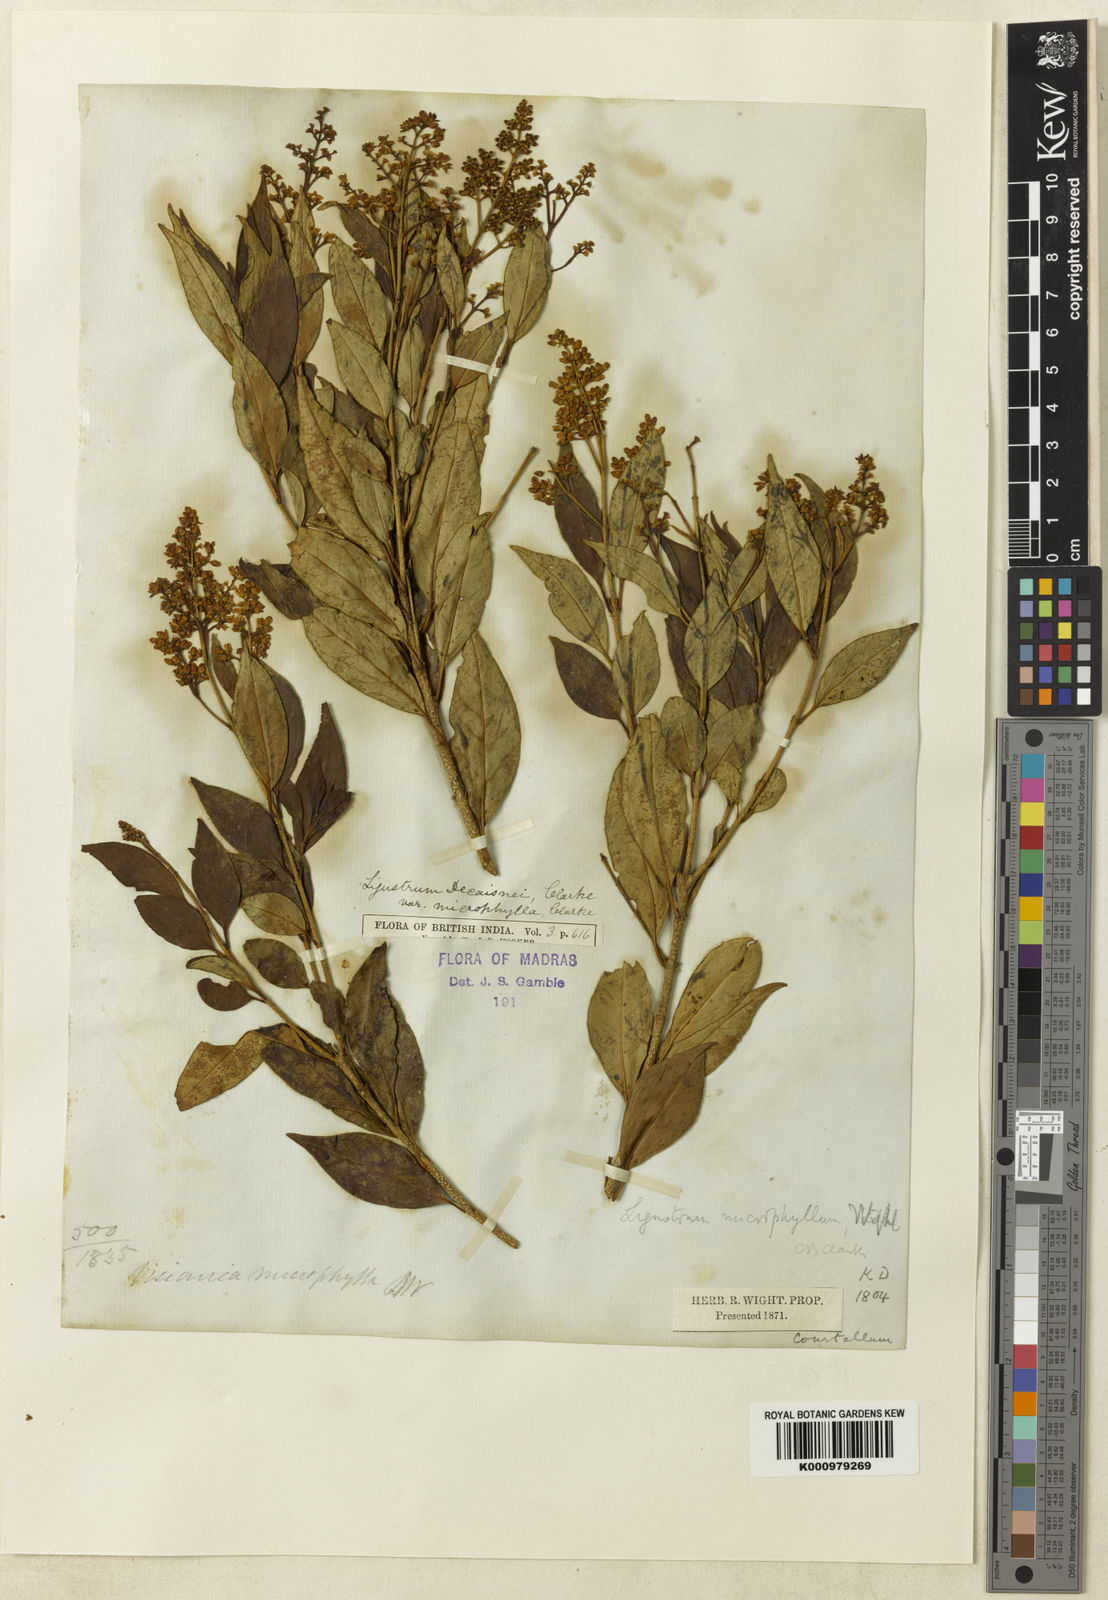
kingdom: Plantae
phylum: Tracheophyta
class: Magnoliopsida
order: Lamiales
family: Oleaceae
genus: Ligustrum
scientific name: Ligustrum robustum
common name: Tree privet
